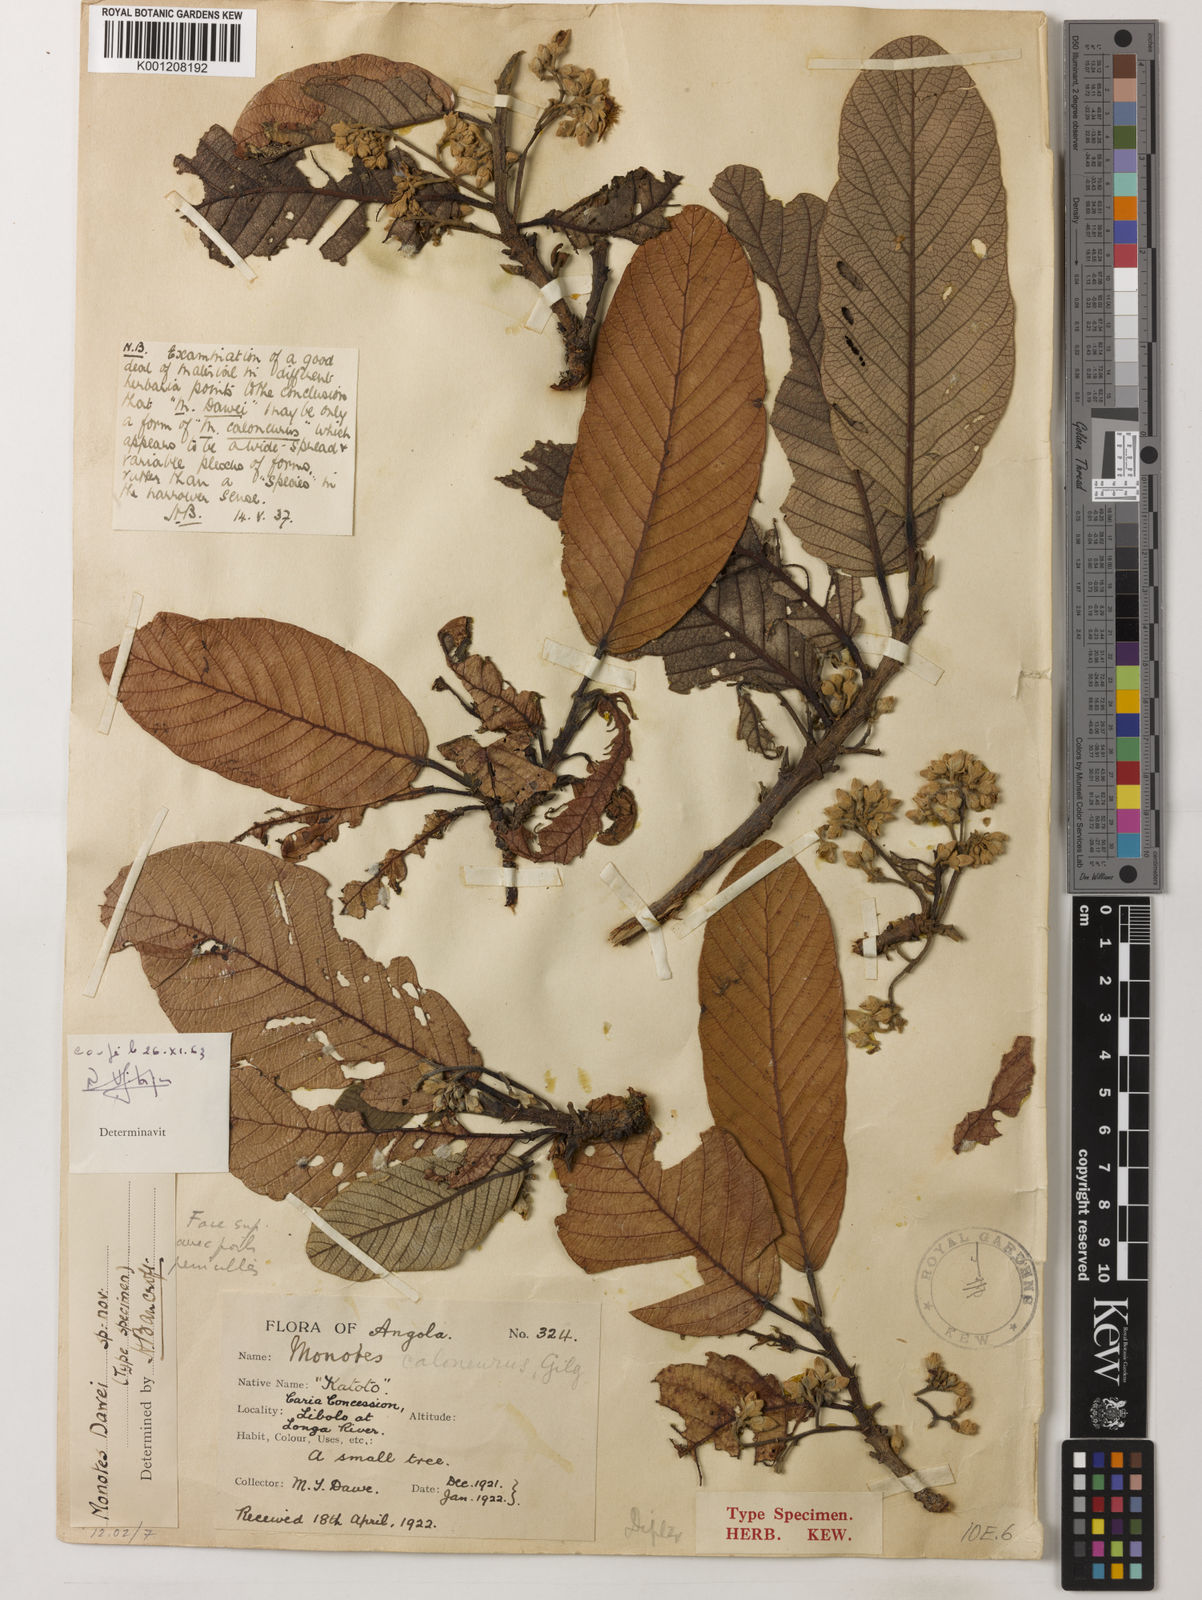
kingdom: Plantae
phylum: Tracheophyta
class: Magnoliopsida
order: Malvales
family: Dipterocarpaceae
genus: Monotes
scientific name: Monotes hypoleucus
